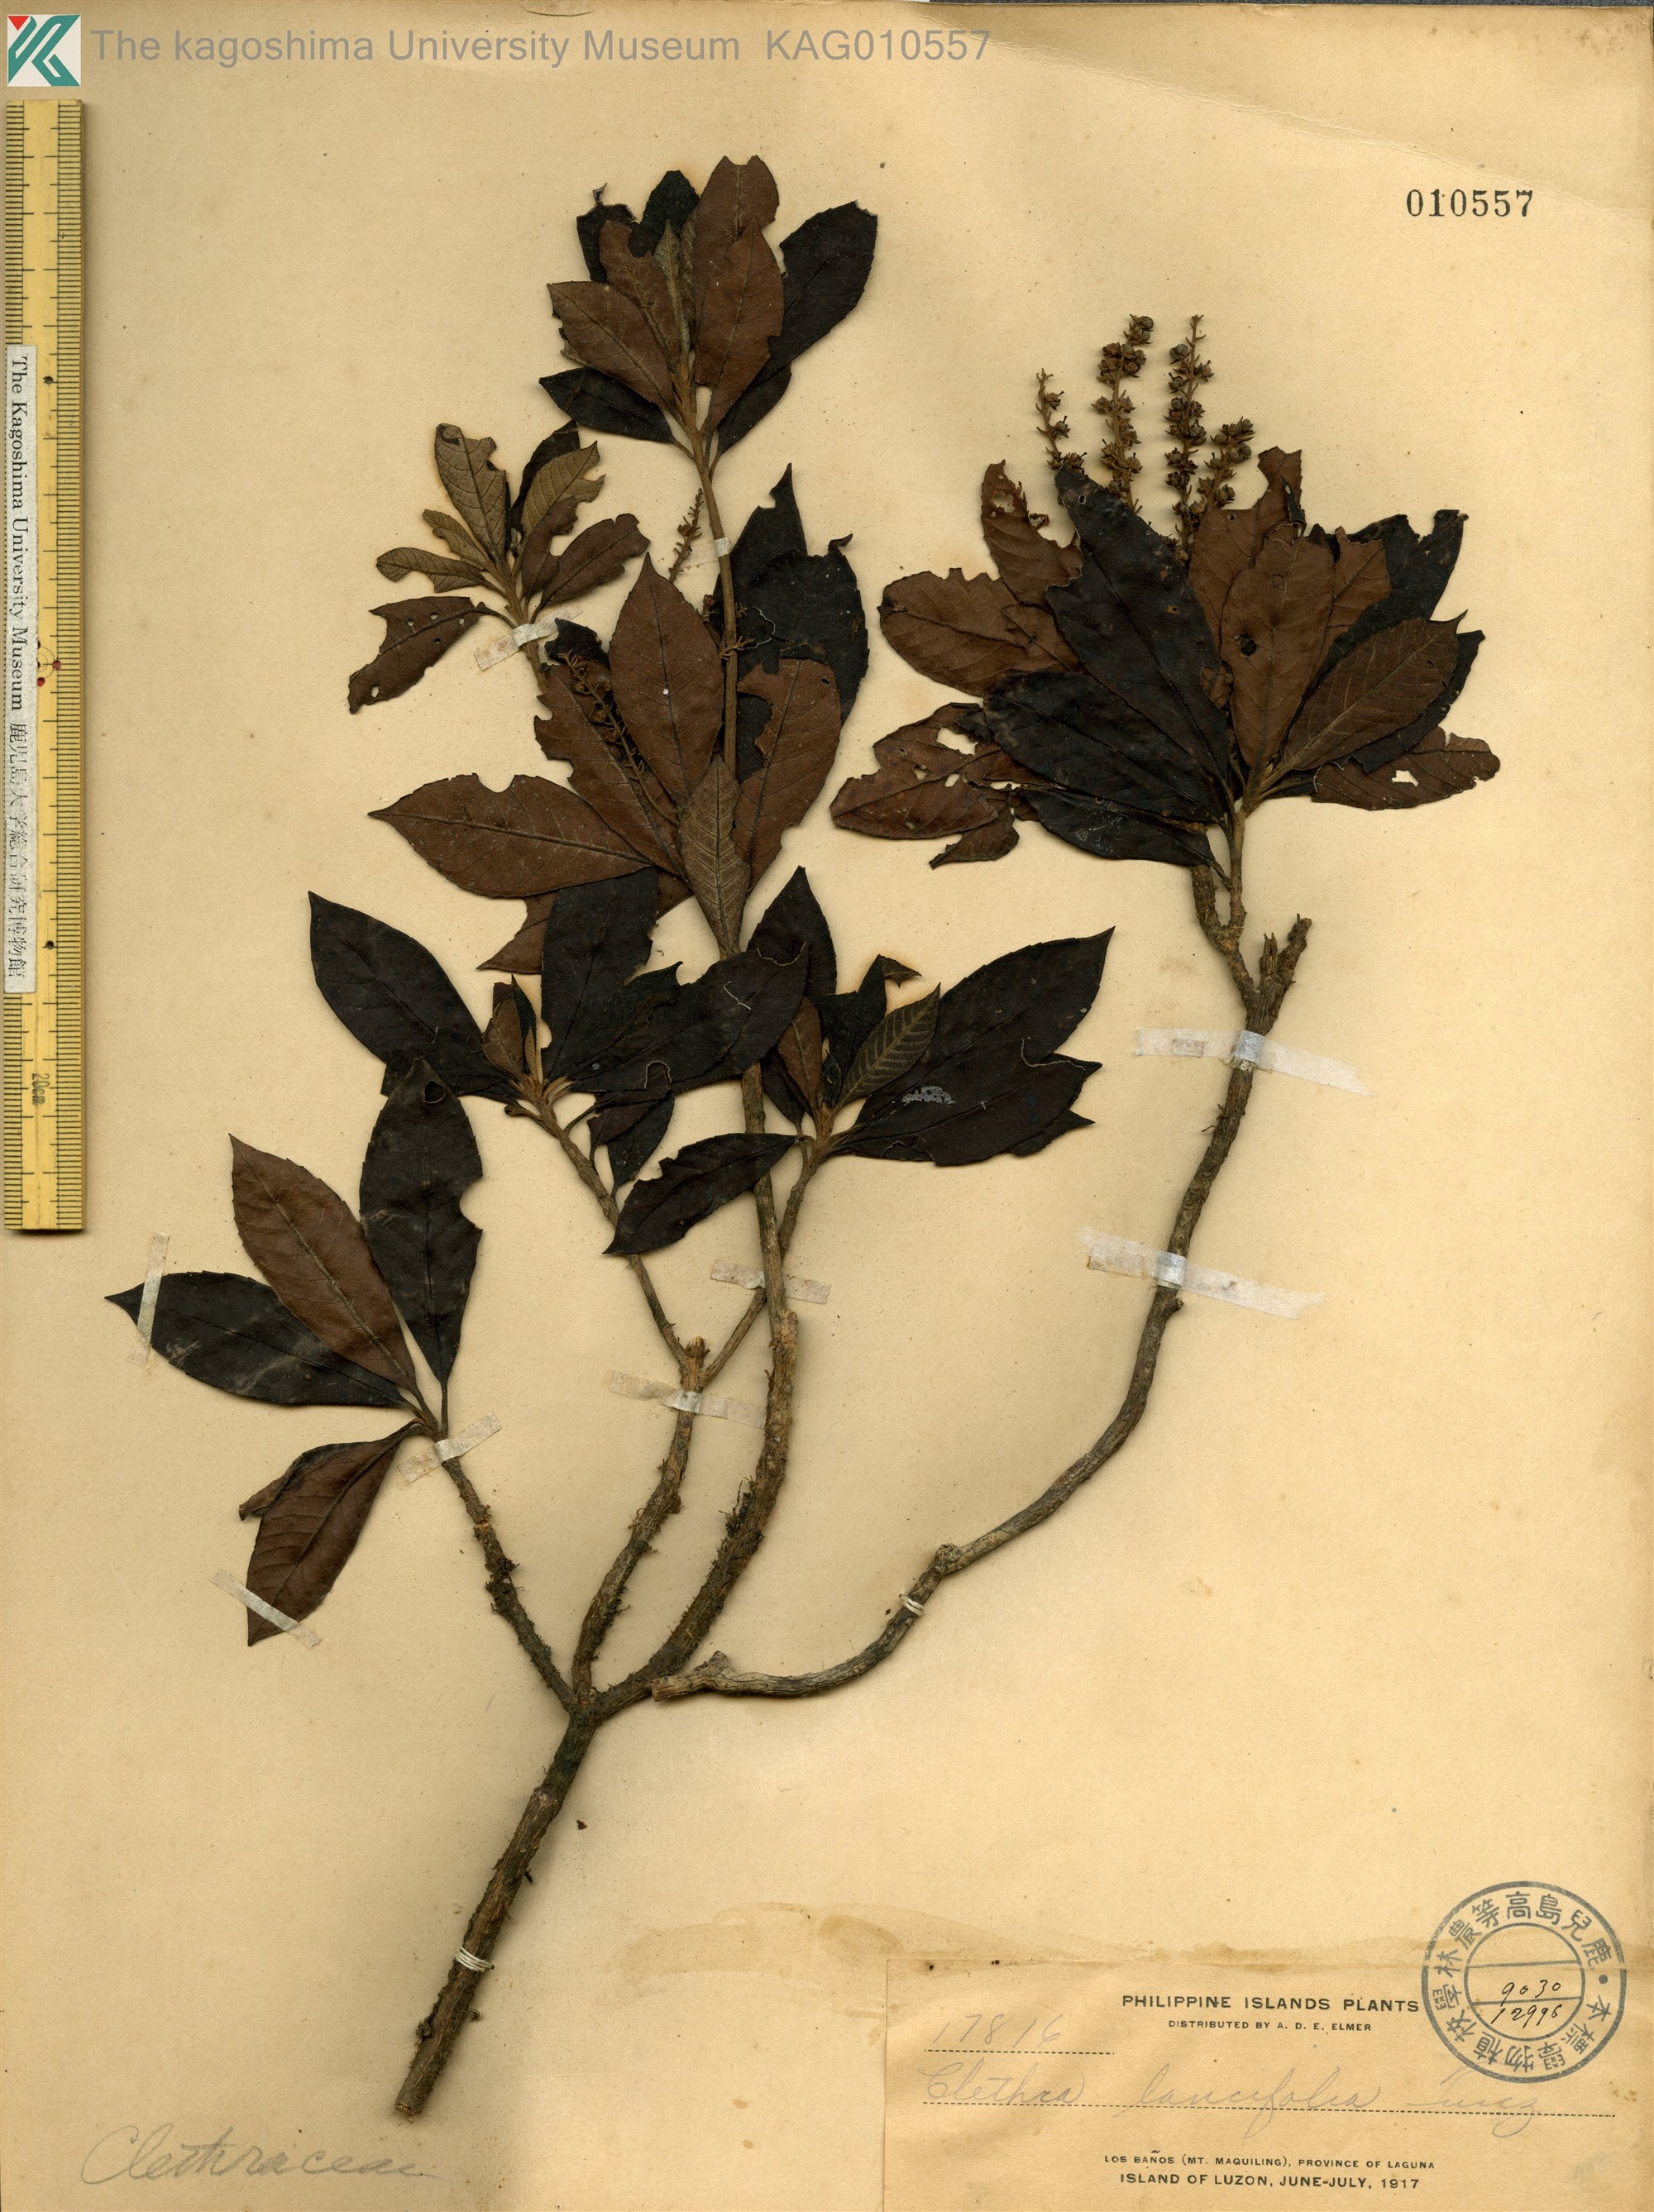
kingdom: Plantae
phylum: Tracheophyta
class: Magnoliopsida
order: Ericales
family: Clethraceae
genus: Clethra
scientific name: Clethra canescens
